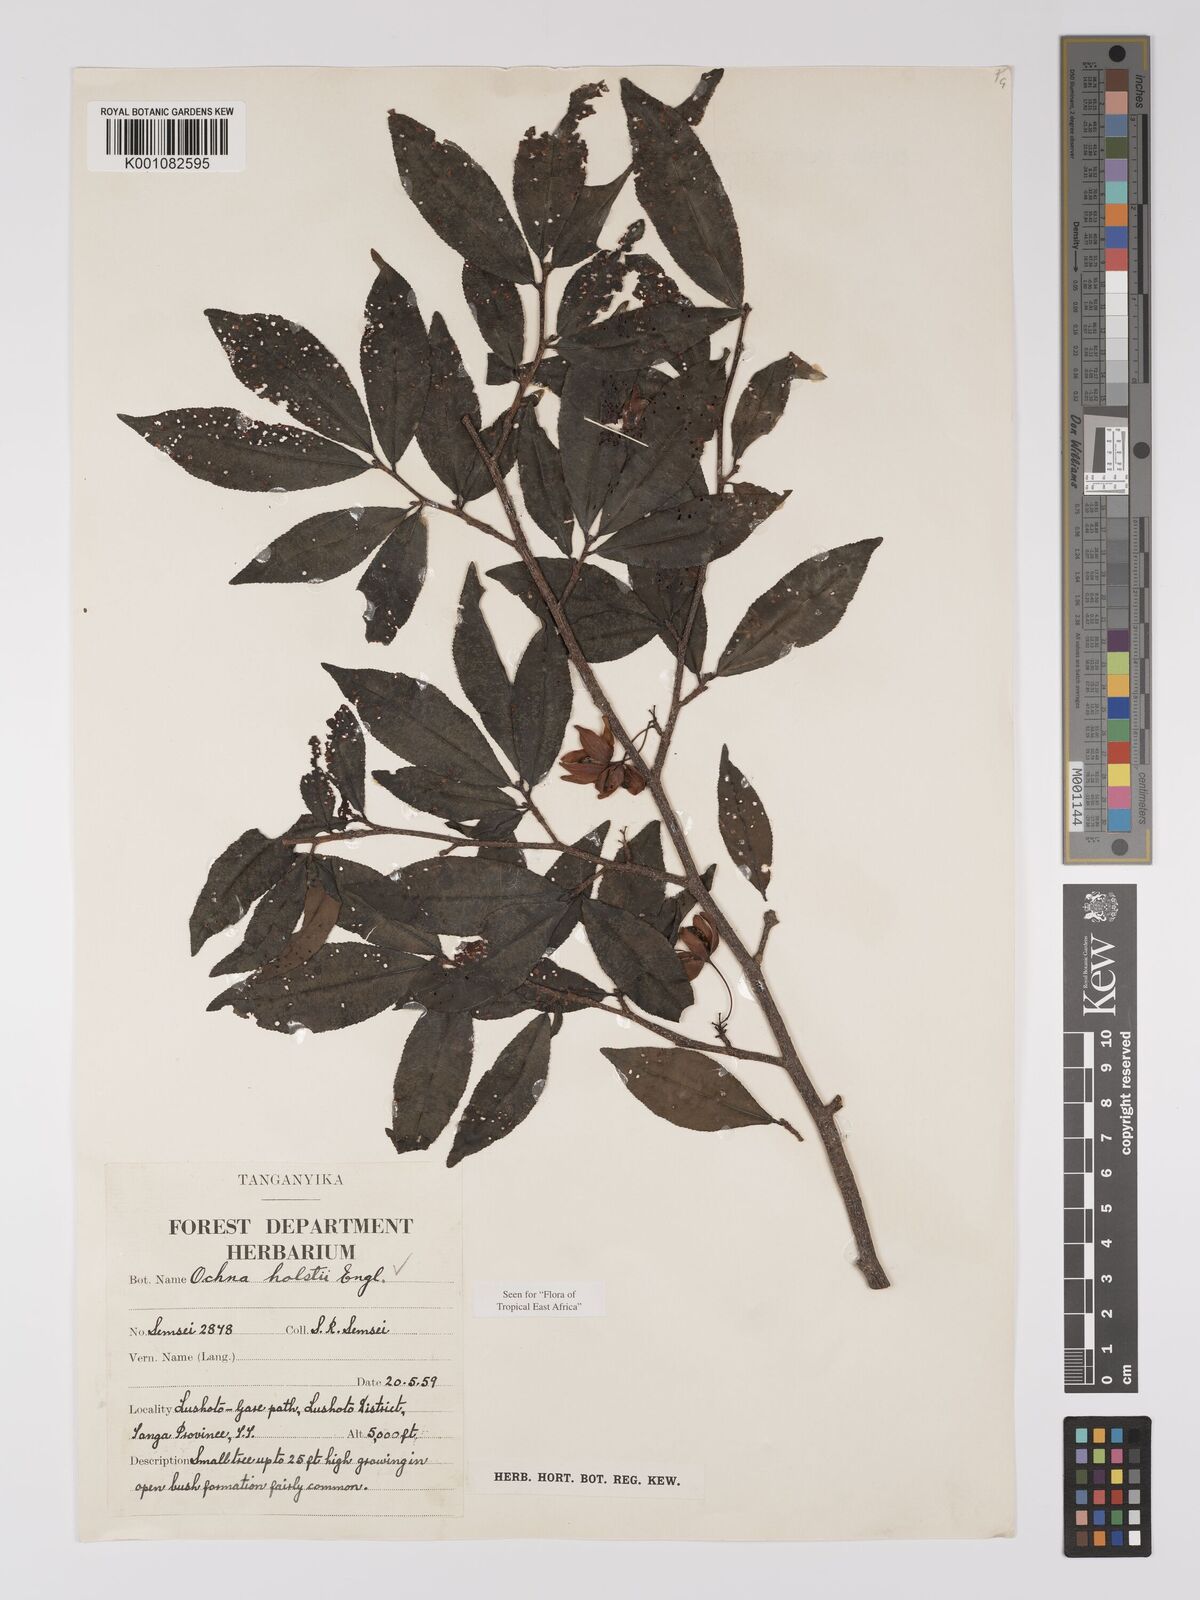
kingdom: Plantae
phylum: Tracheophyta
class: Magnoliopsida
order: Malpighiales
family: Ochnaceae
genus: Ochna
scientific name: Ochna holstii
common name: Red ironwood
